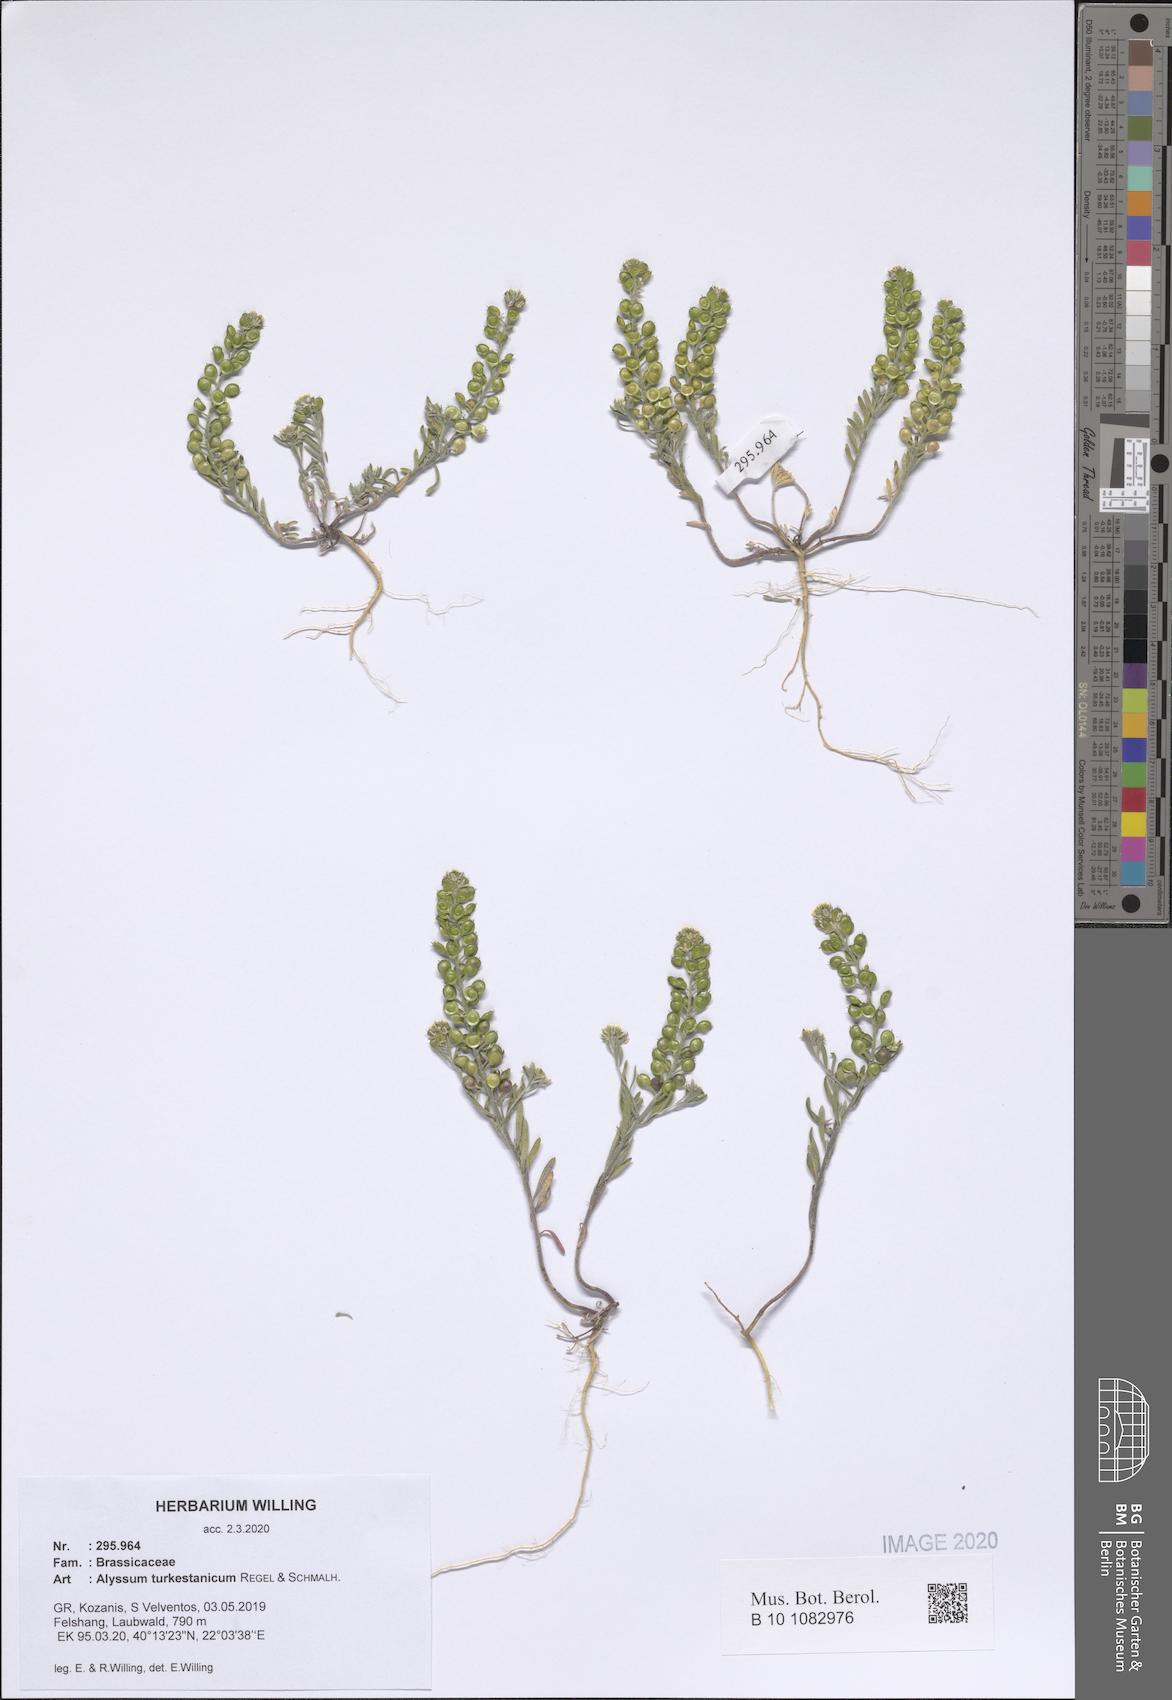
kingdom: Plantae
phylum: Tracheophyta
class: Magnoliopsida
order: Brassicales
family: Brassicaceae
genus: Alyssum
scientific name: Alyssum turkestanicum
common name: Desert alyssum
